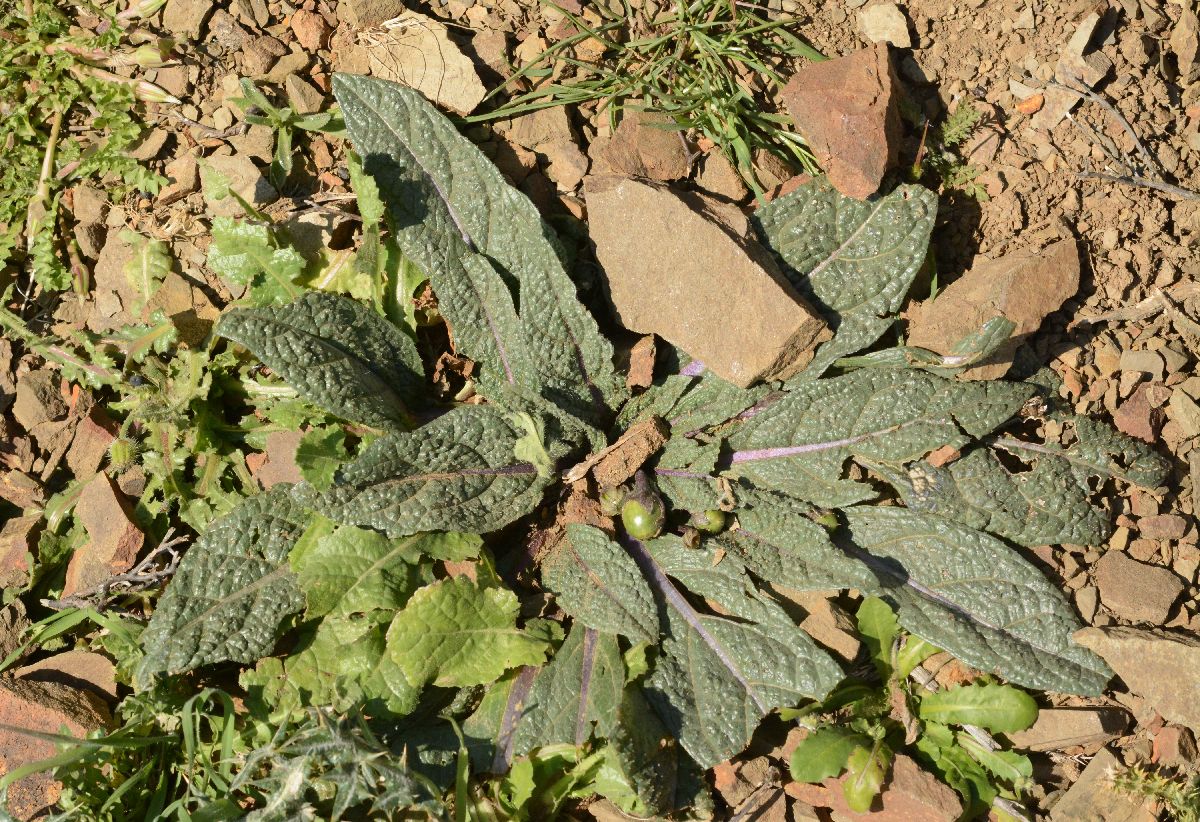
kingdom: Plantae
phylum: Tracheophyta
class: Magnoliopsida
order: Solanales
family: Solanaceae
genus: Mandragora
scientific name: Mandragora officinarum
